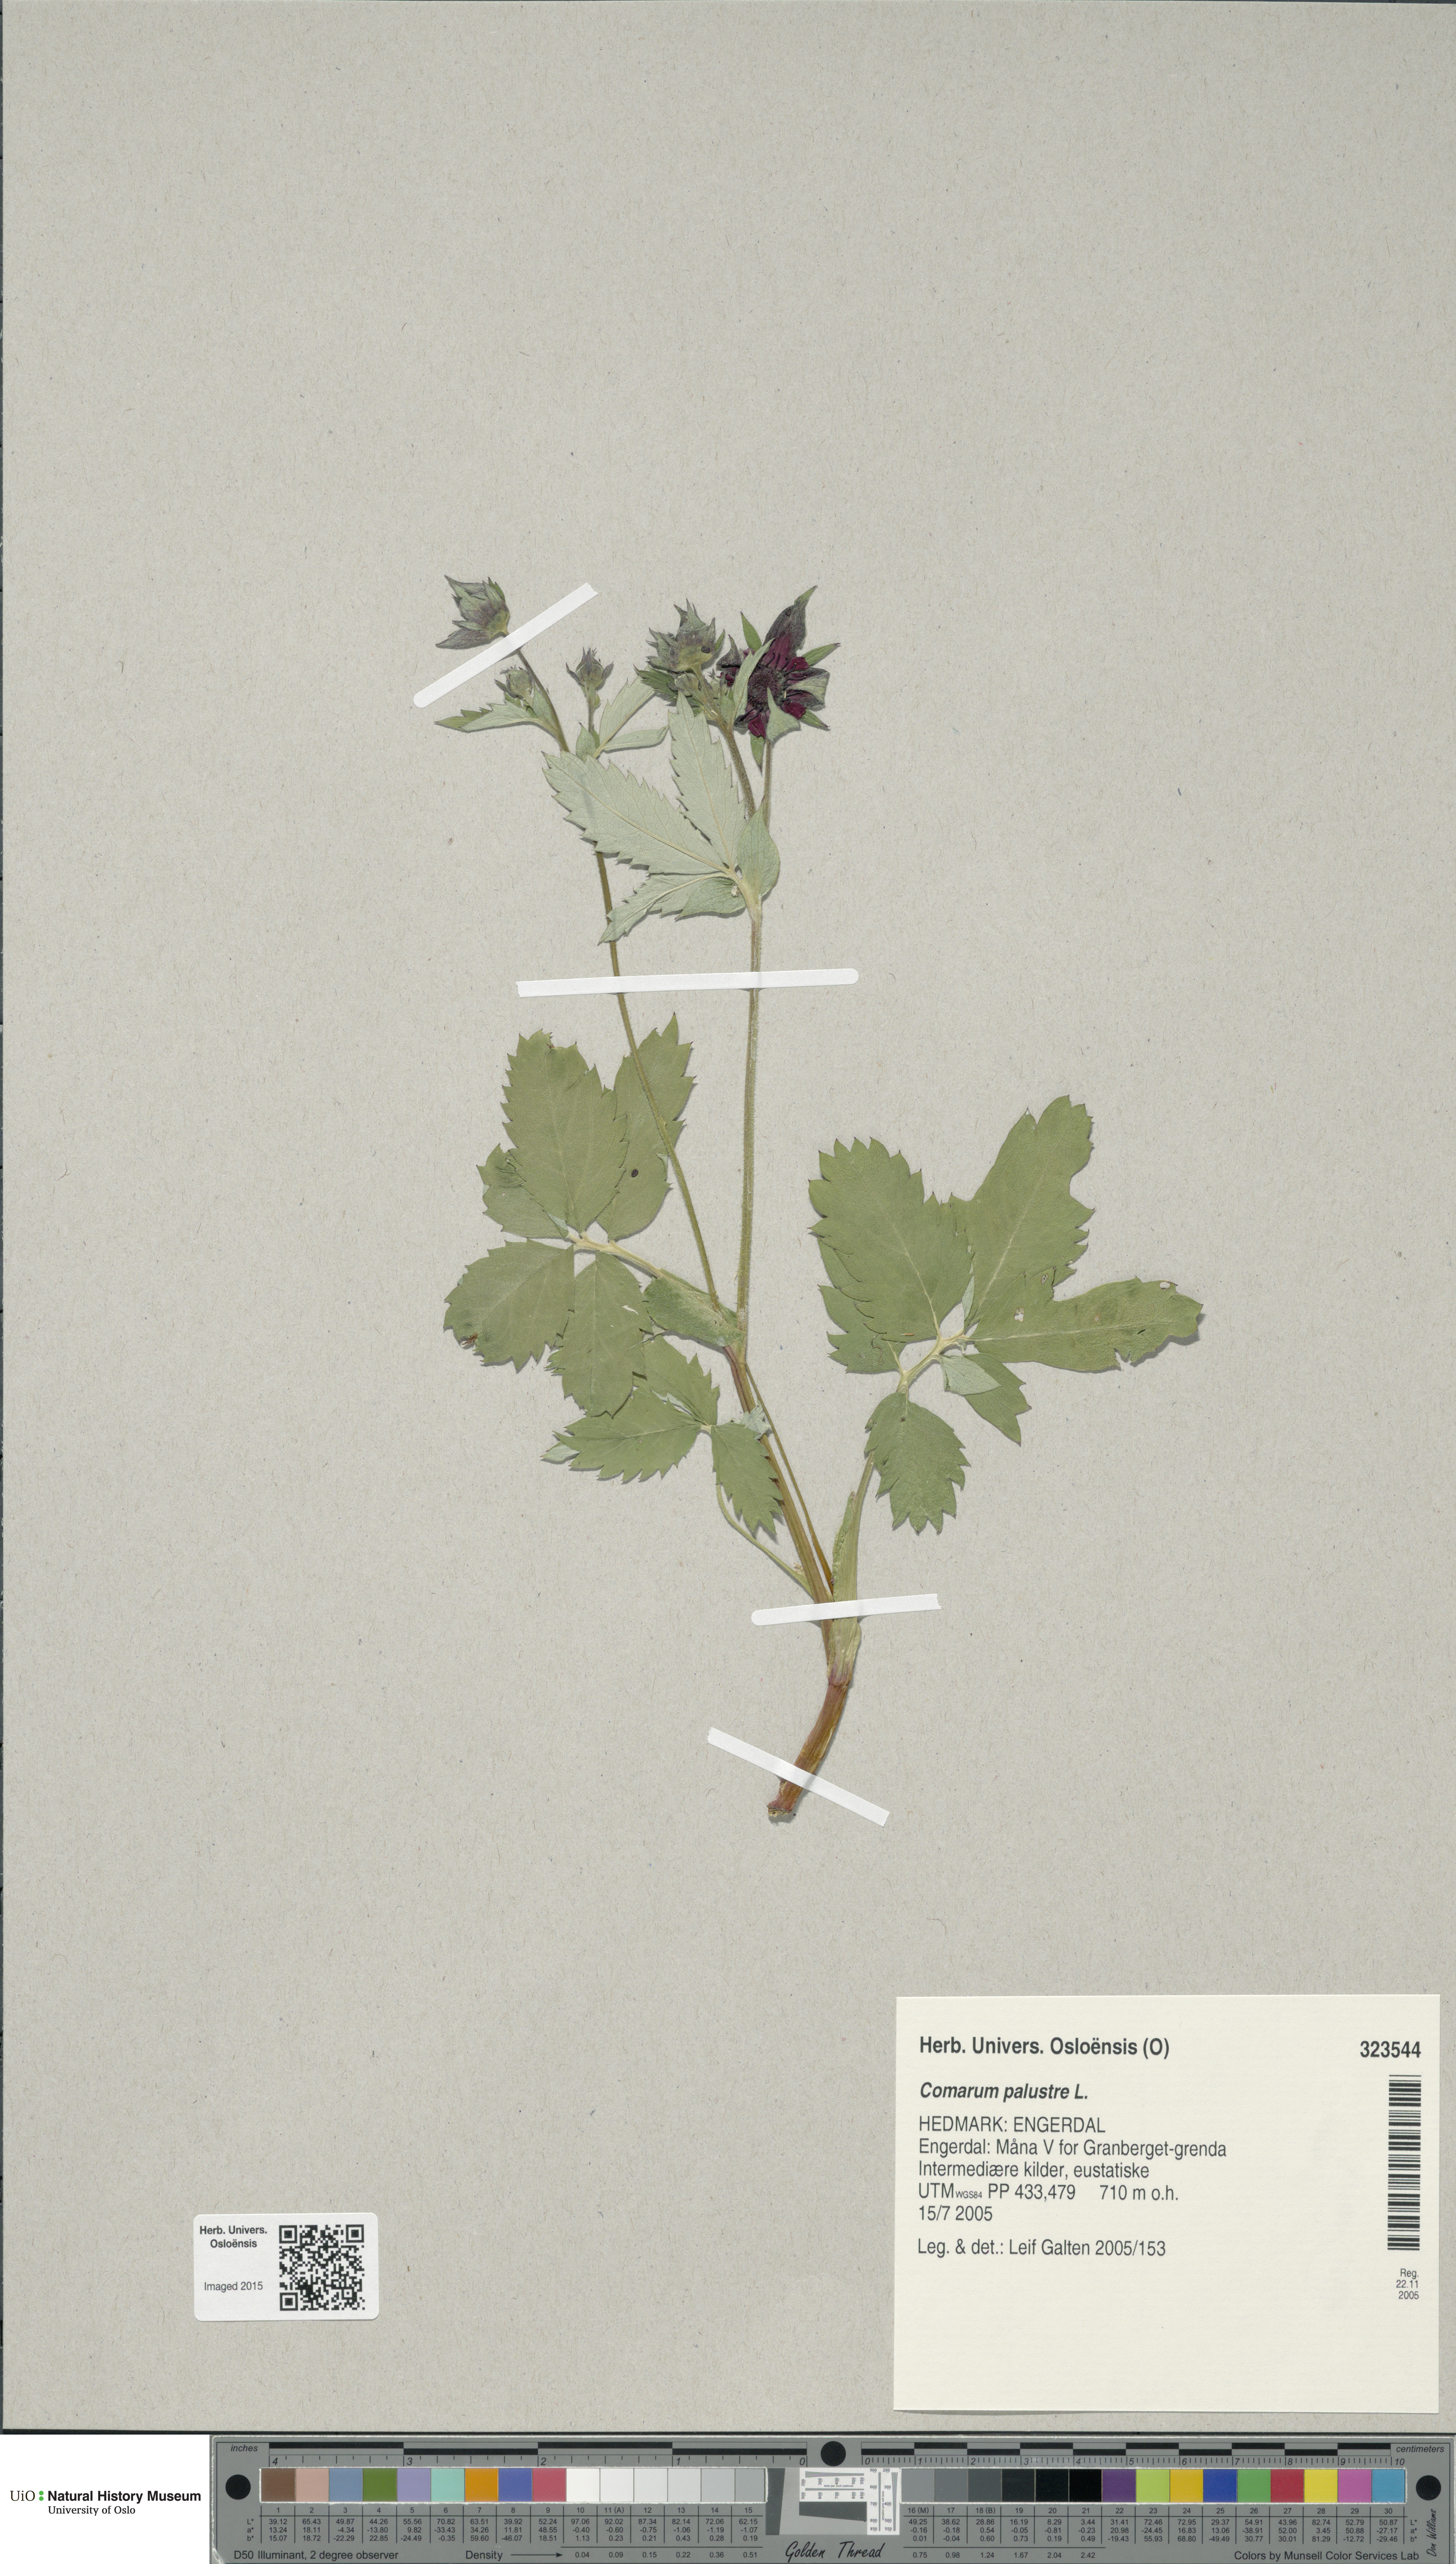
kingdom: Plantae
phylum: Tracheophyta
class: Magnoliopsida
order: Rosales
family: Rosaceae
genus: Comarum
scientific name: Comarum palustre
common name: Marsh cinquefoil
